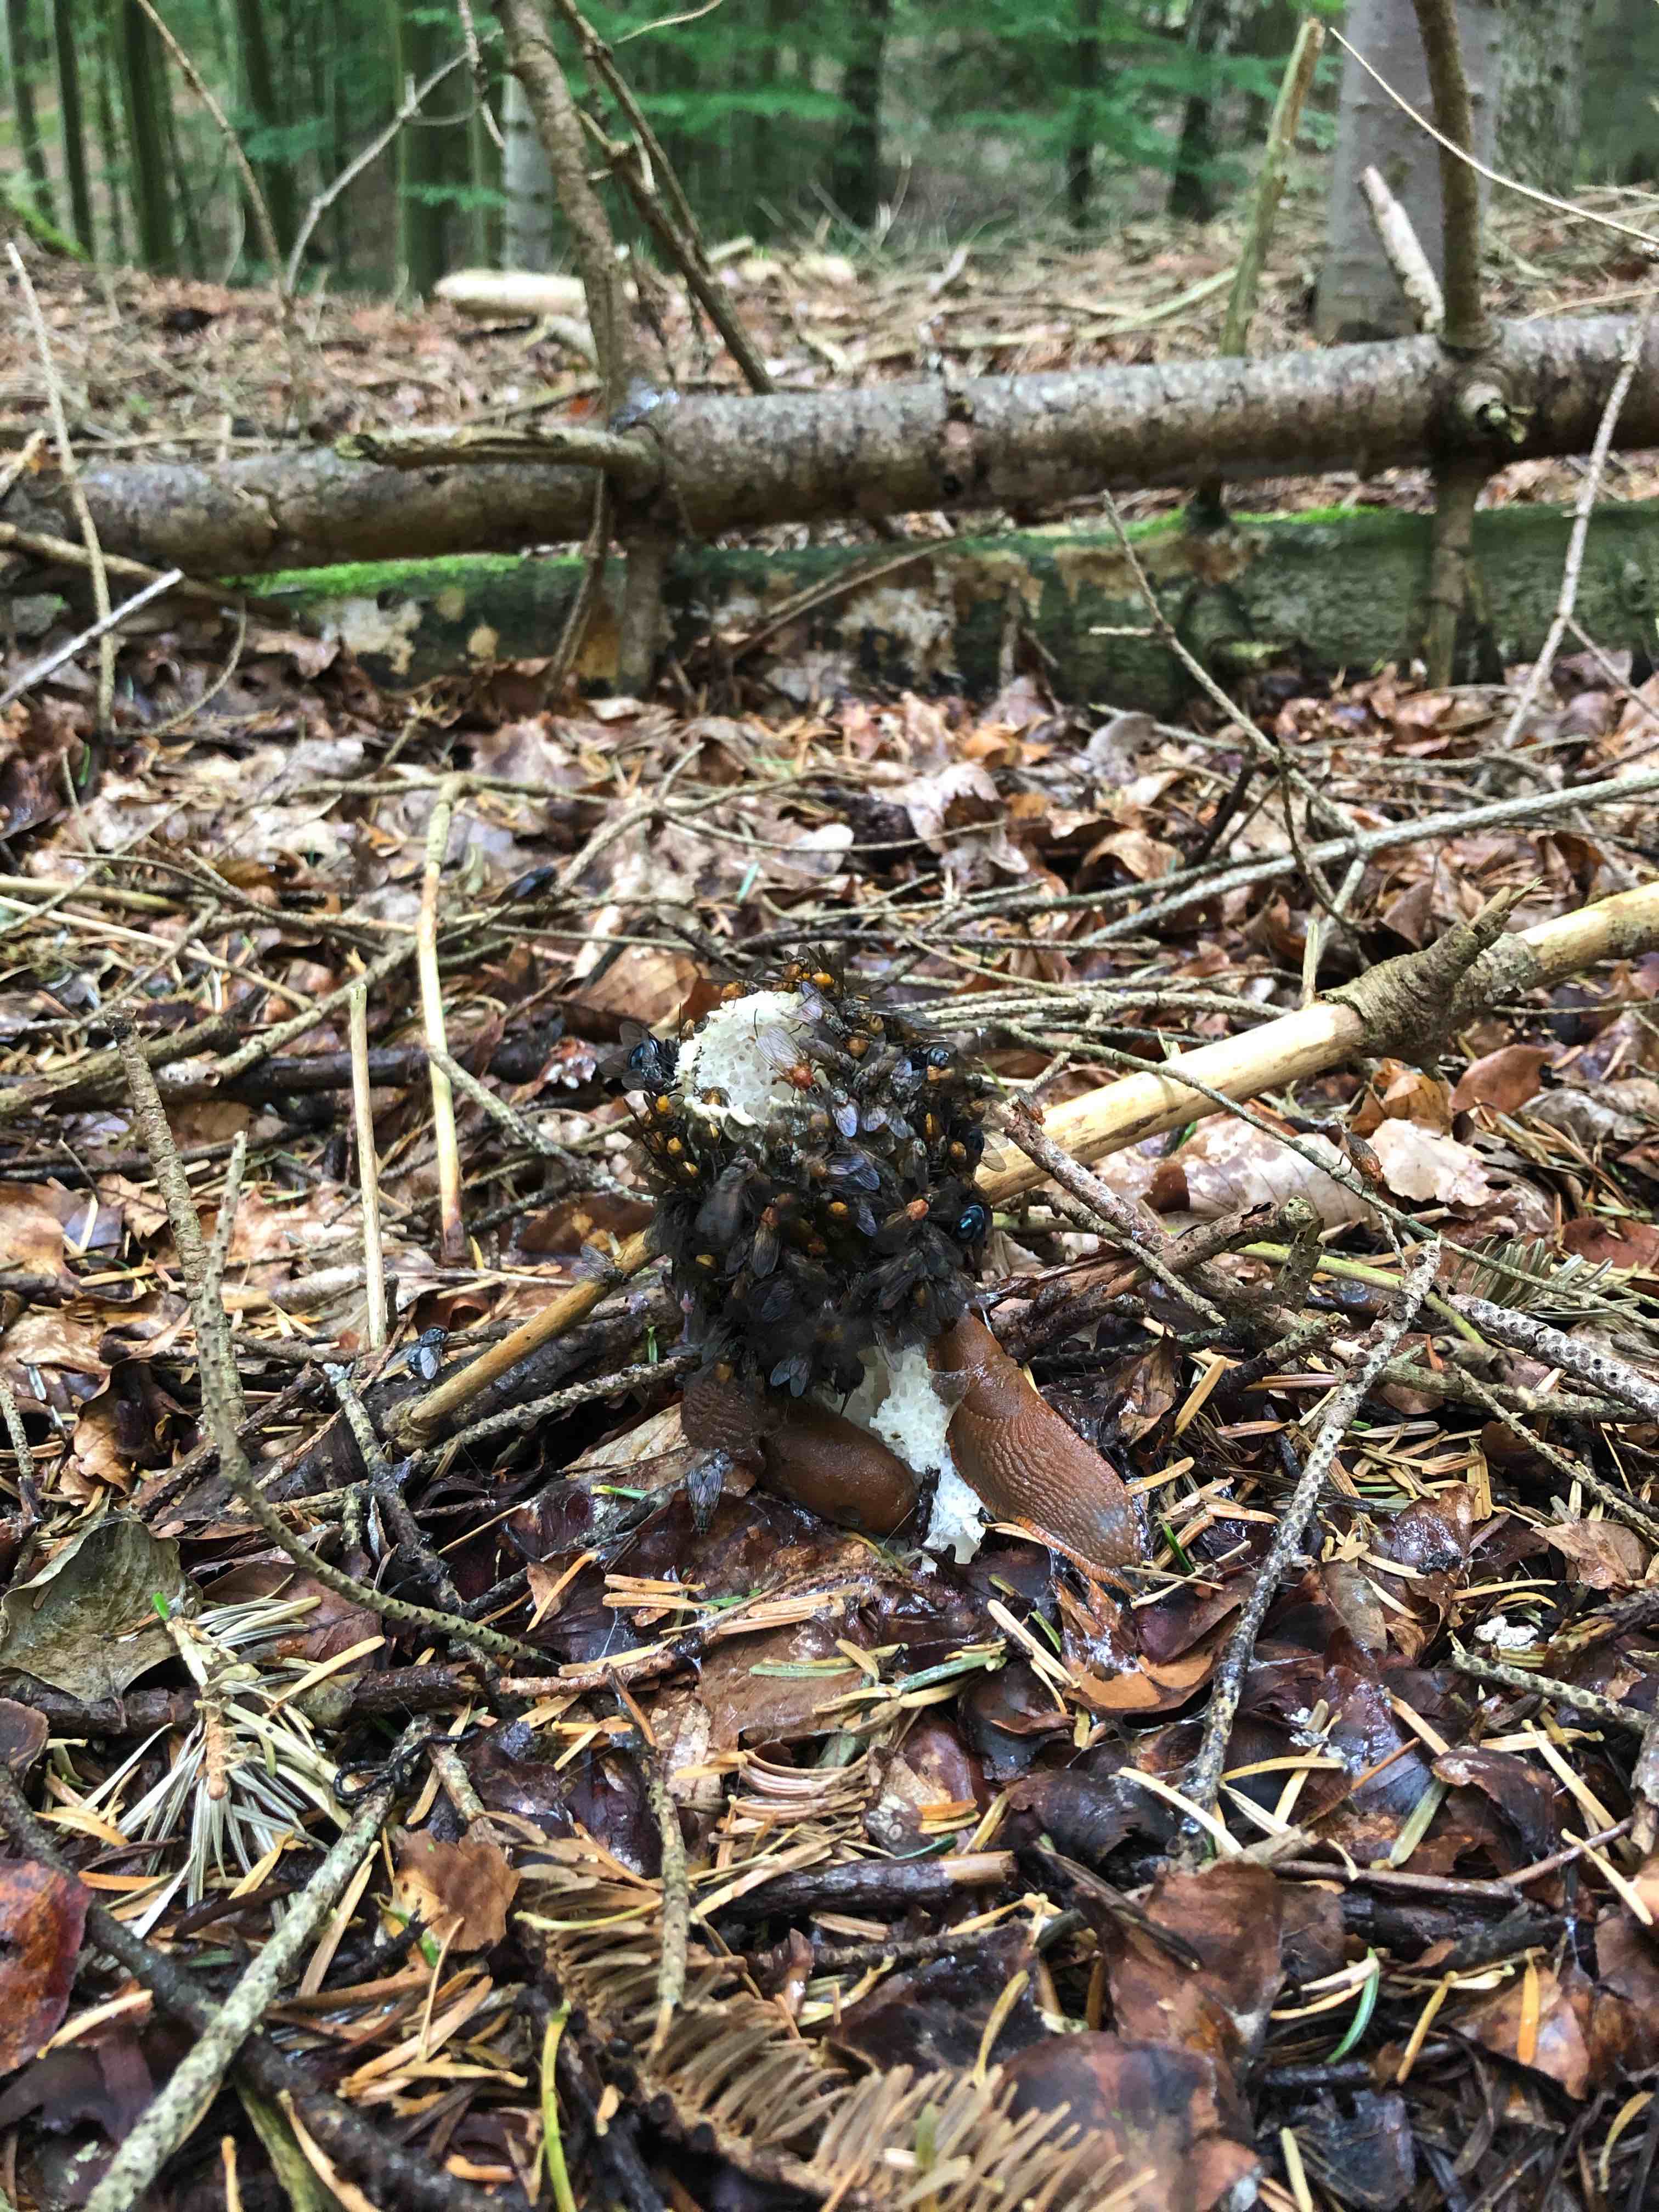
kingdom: Fungi
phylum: Basidiomycota
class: Agaricomycetes
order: Phallales
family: Phallaceae
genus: Phallus
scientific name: Phallus impudicus
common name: almindelig stinksvamp
